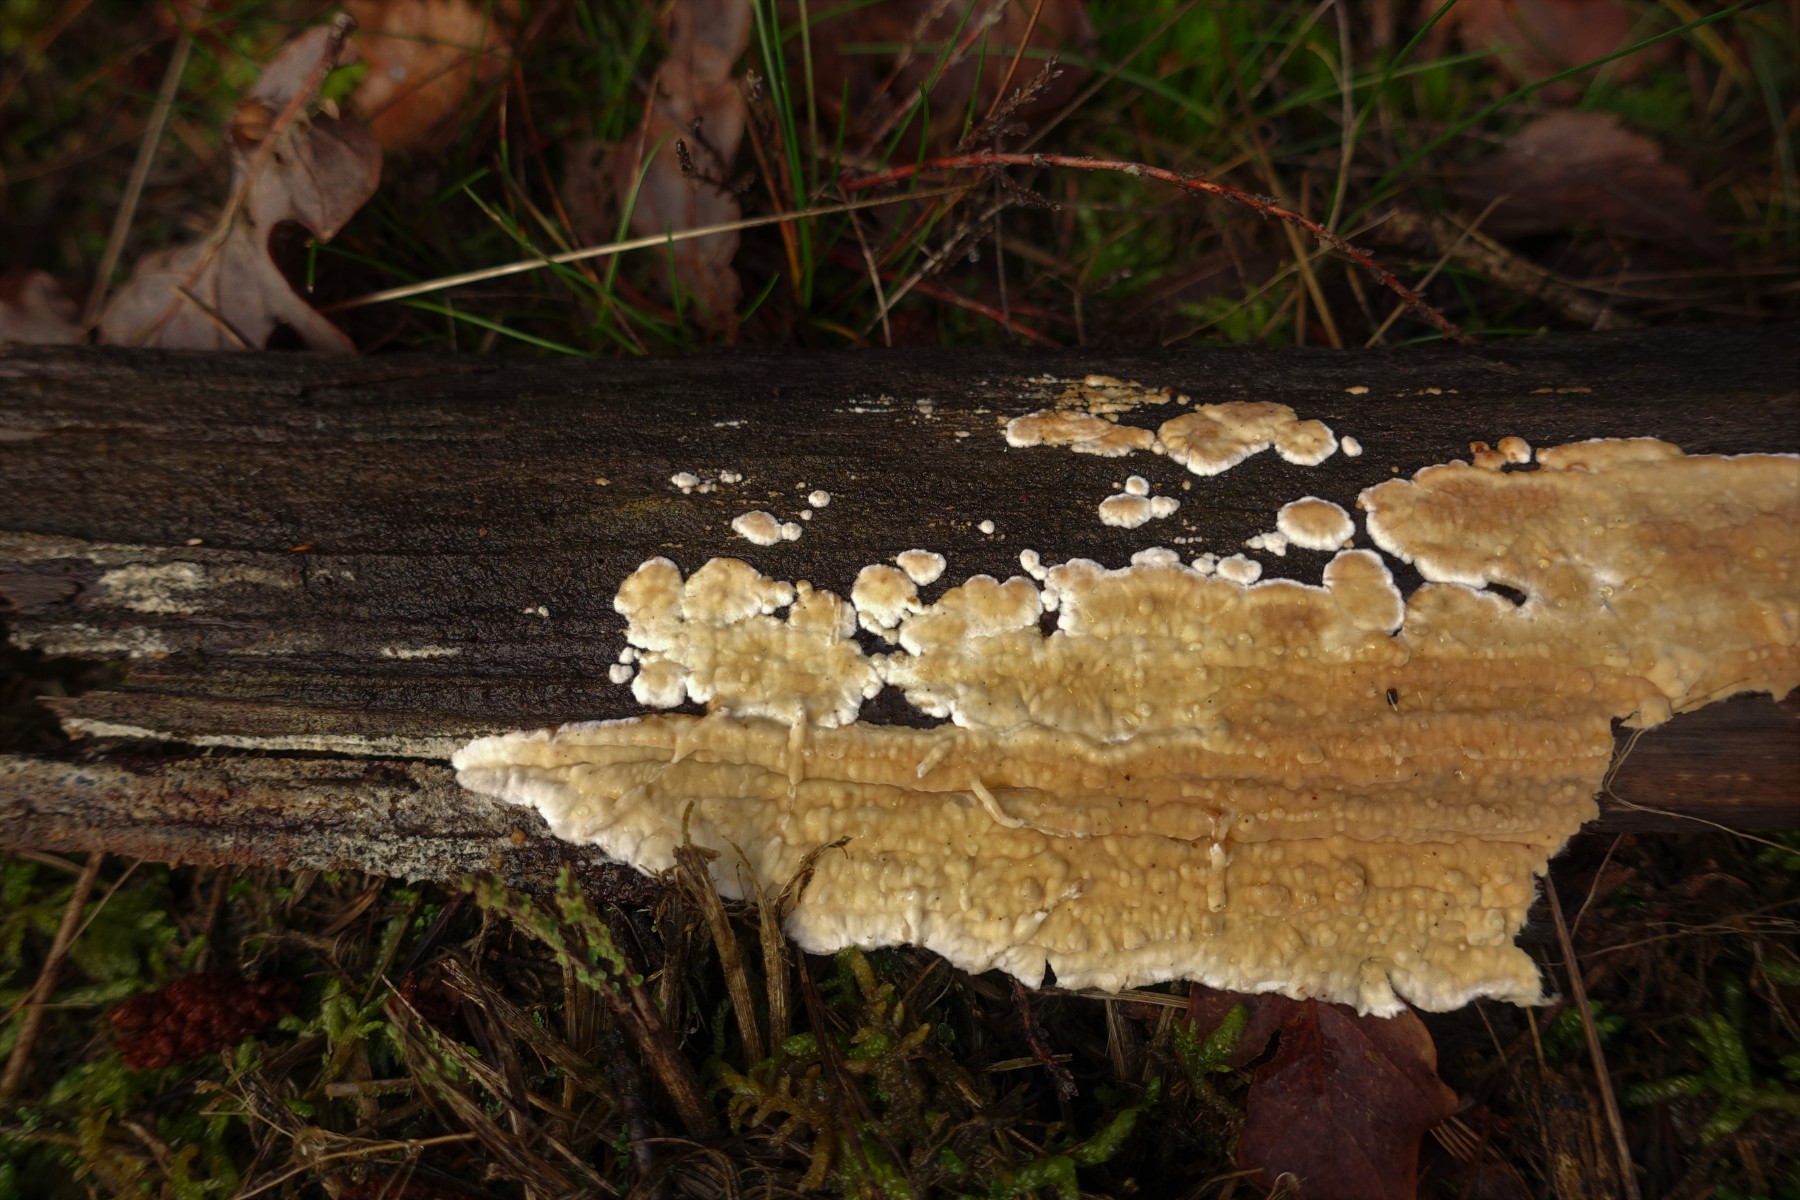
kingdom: Fungi
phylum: Basidiomycota
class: Agaricomycetes
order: Agaricales
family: Physalacriaceae
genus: Cylindrobasidium
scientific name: Cylindrobasidium evolvens
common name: sprækkehinde
